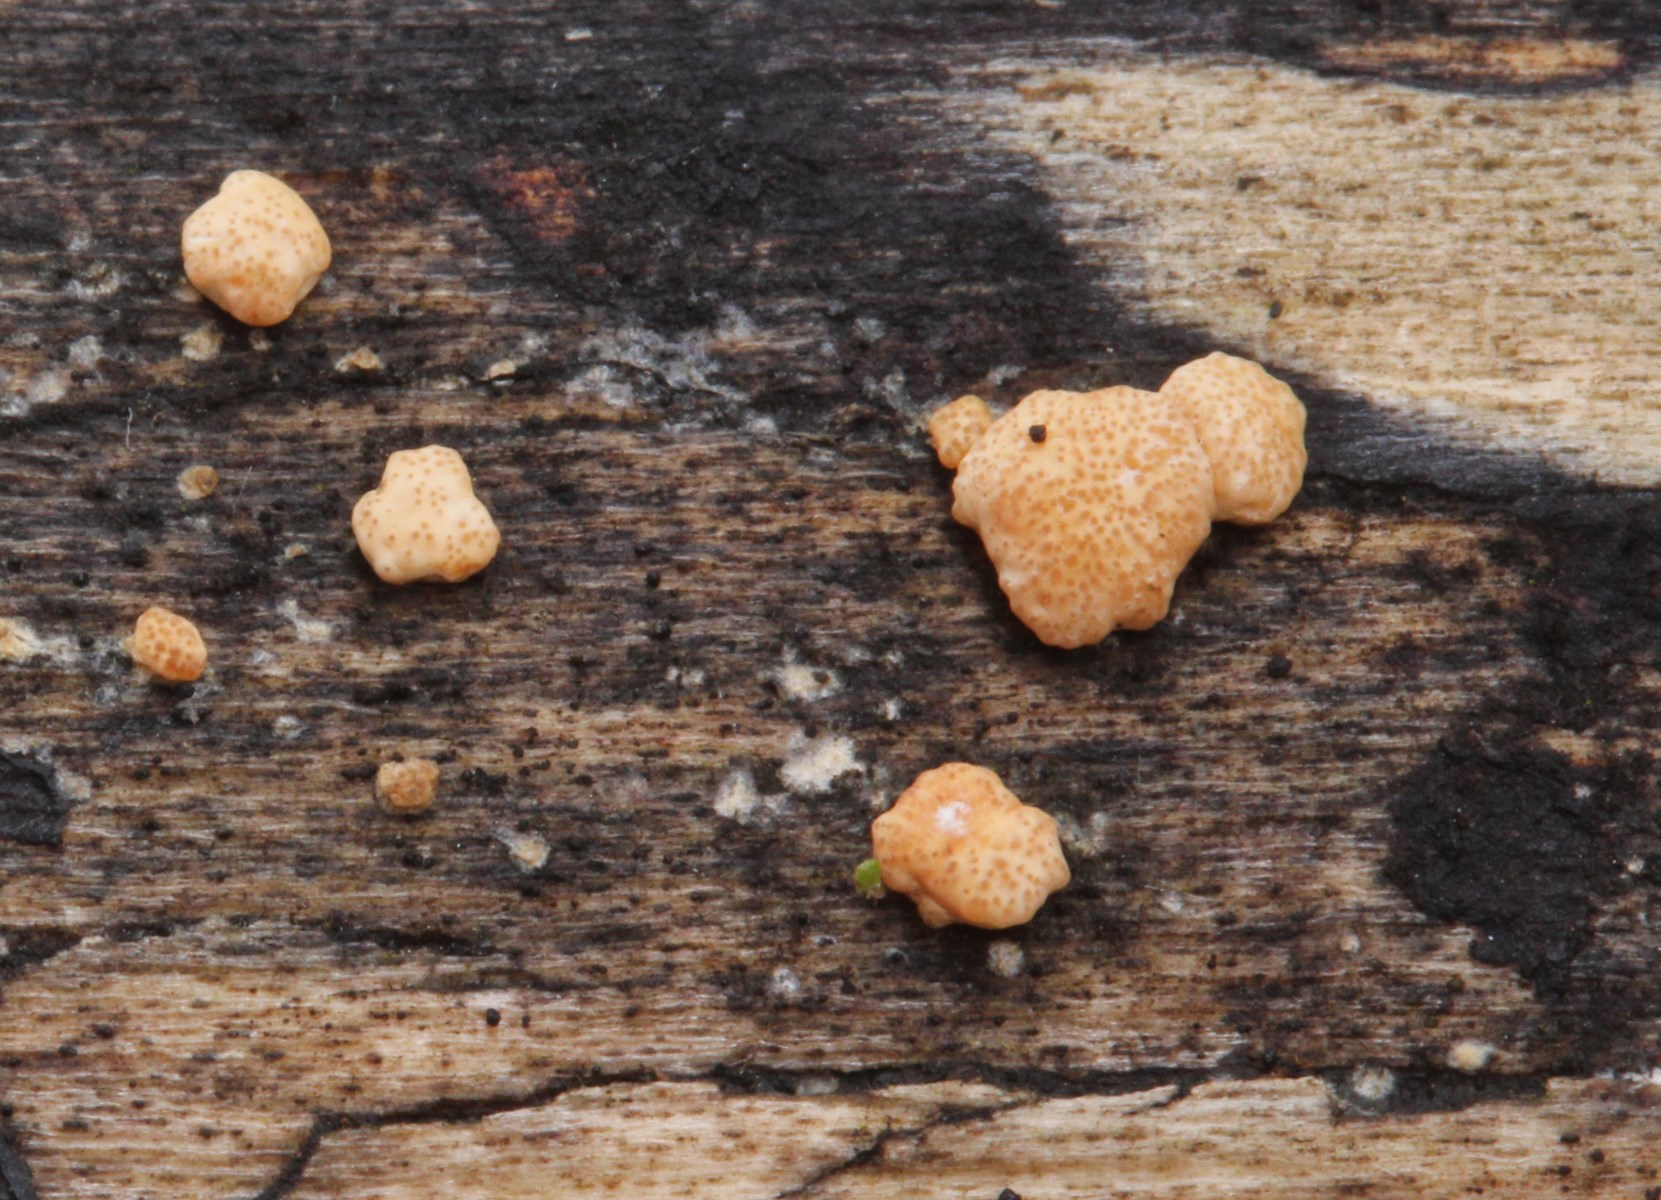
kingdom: Fungi
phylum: Ascomycota
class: Sordariomycetes
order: Hypocreales
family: Hypocreaceae
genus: Trichoderma
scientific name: Trichoderma
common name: kødkerne
